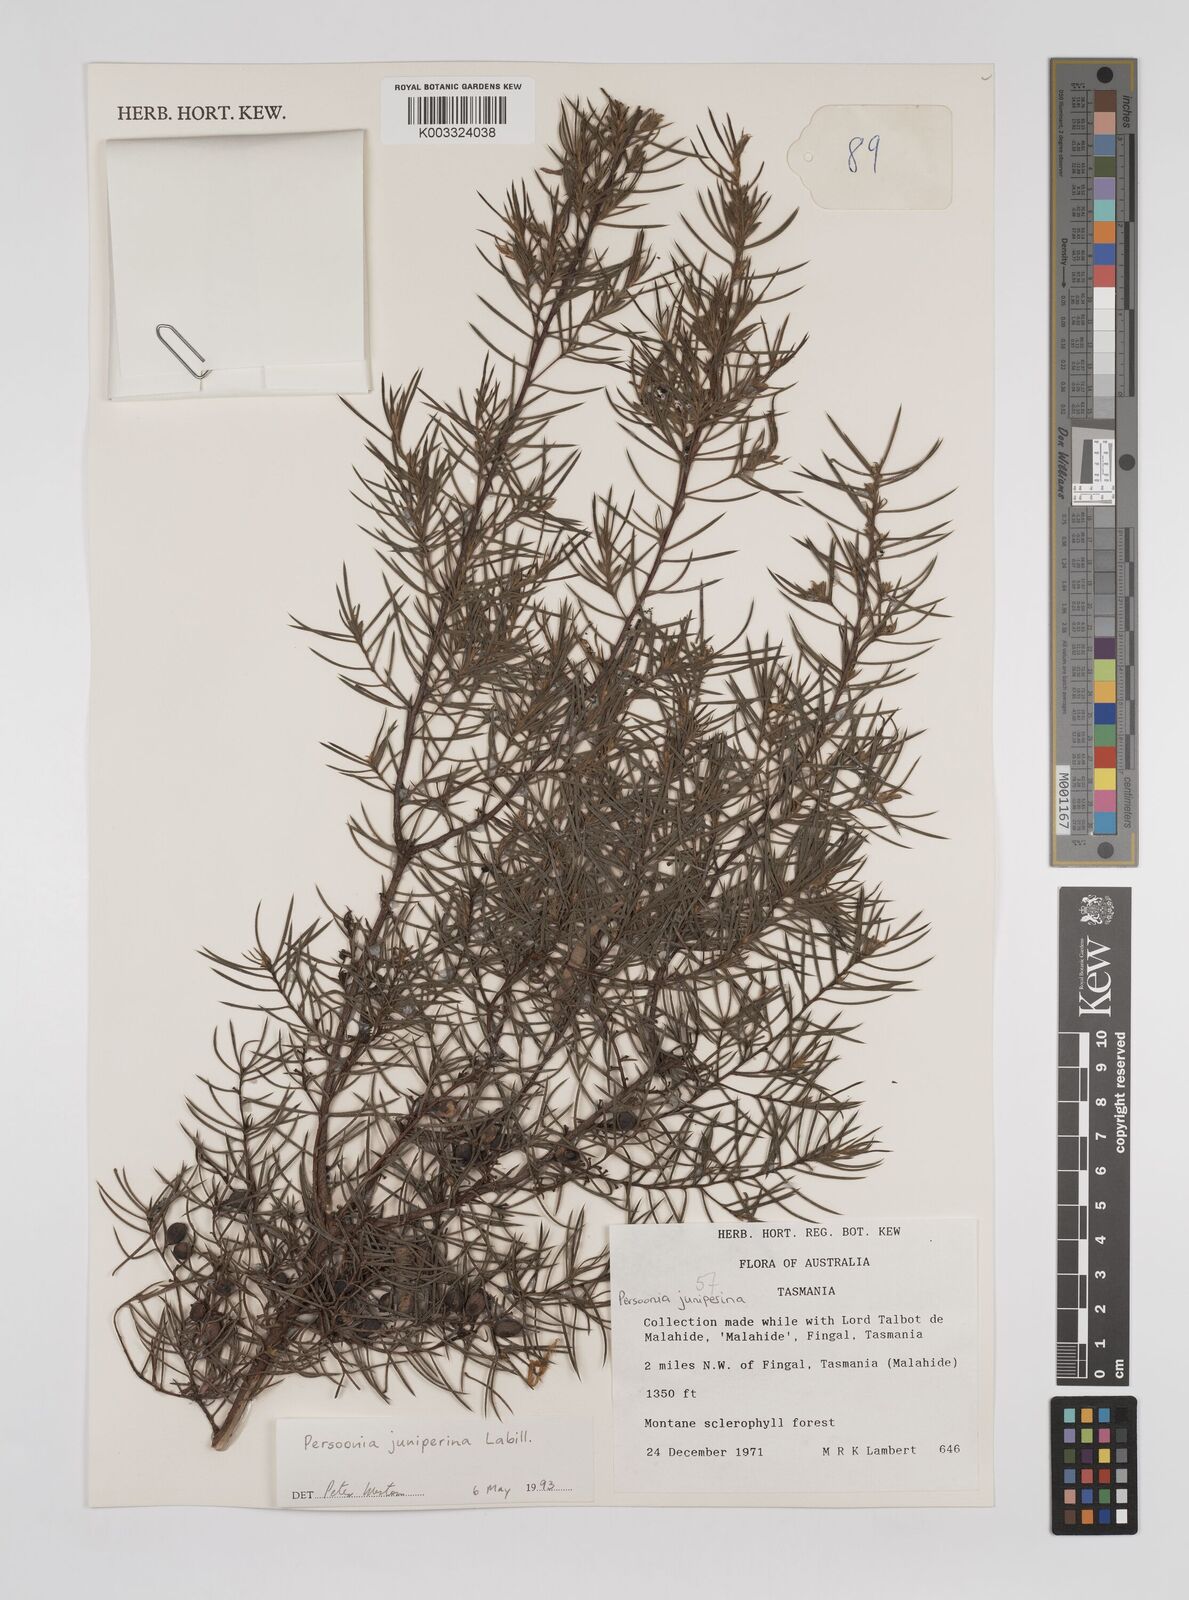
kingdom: Plantae
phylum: Tracheophyta
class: Magnoliopsida
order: Proteales
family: Proteaceae
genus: Persoonia
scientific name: Persoonia juniperina
